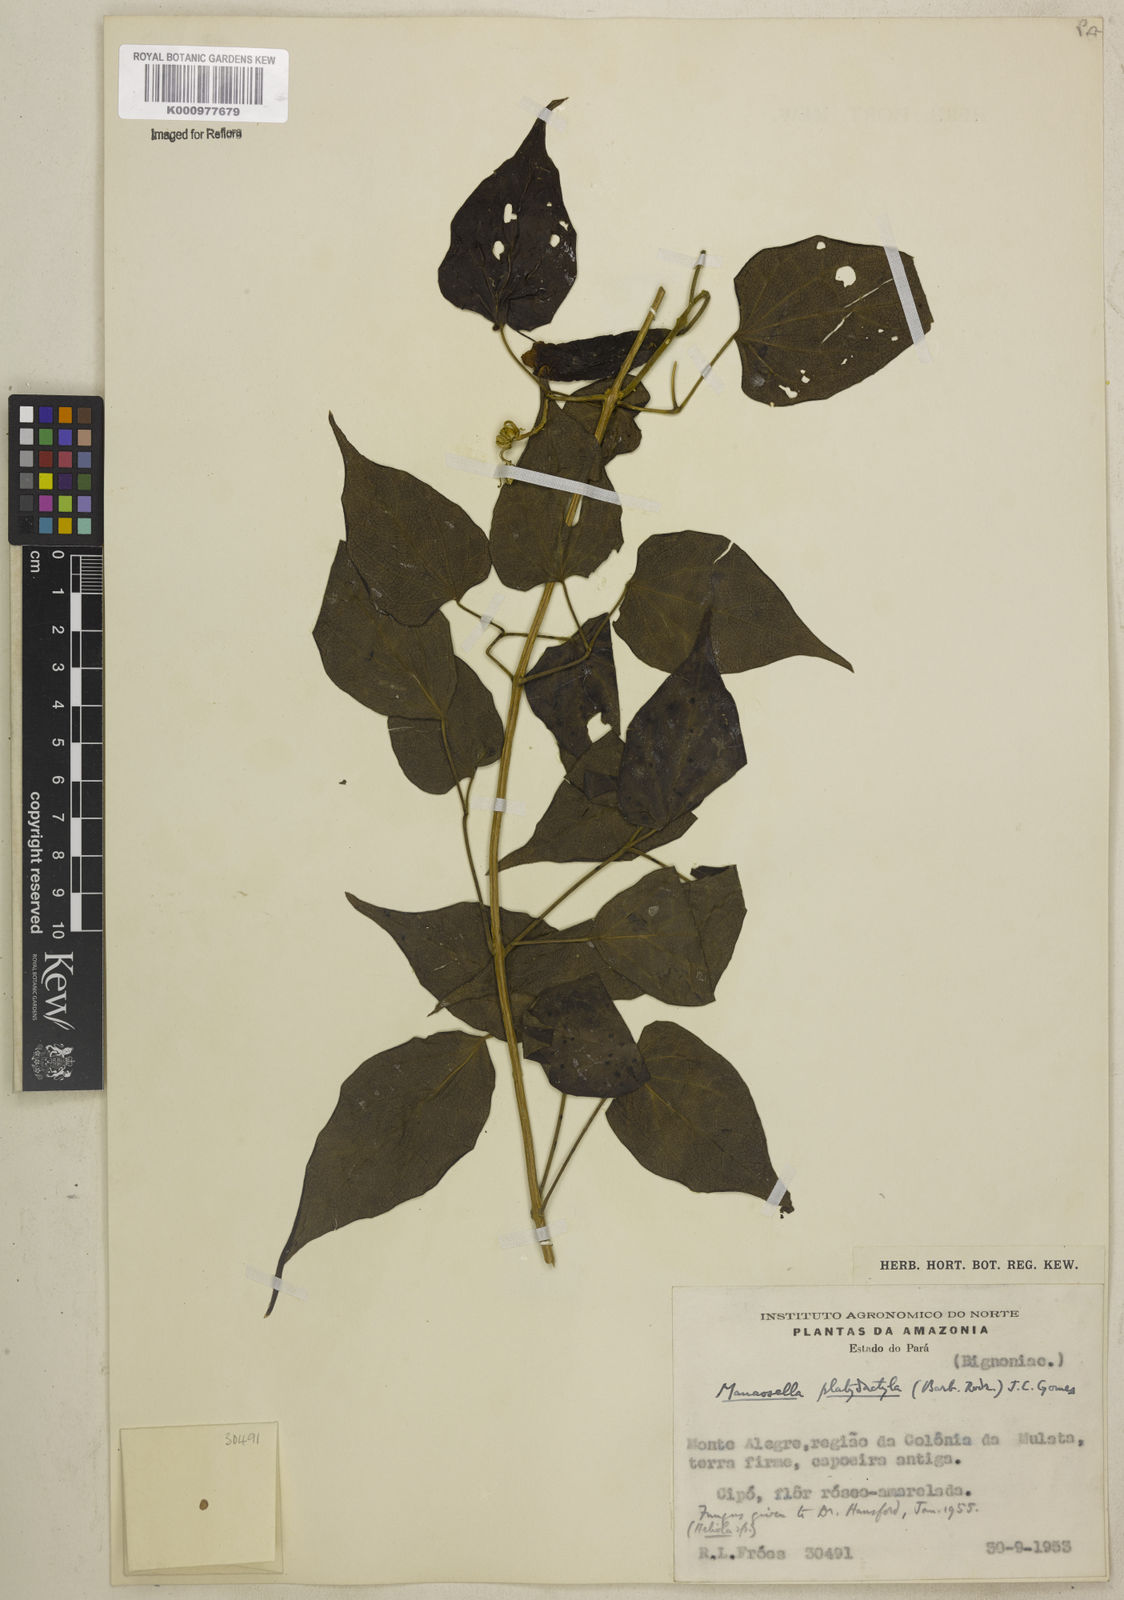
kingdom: Plantae
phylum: Tracheophyta
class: Magnoliopsida
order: Lamiales
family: Bignoniaceae
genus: Manaosella
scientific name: Manaosella cordifolia
